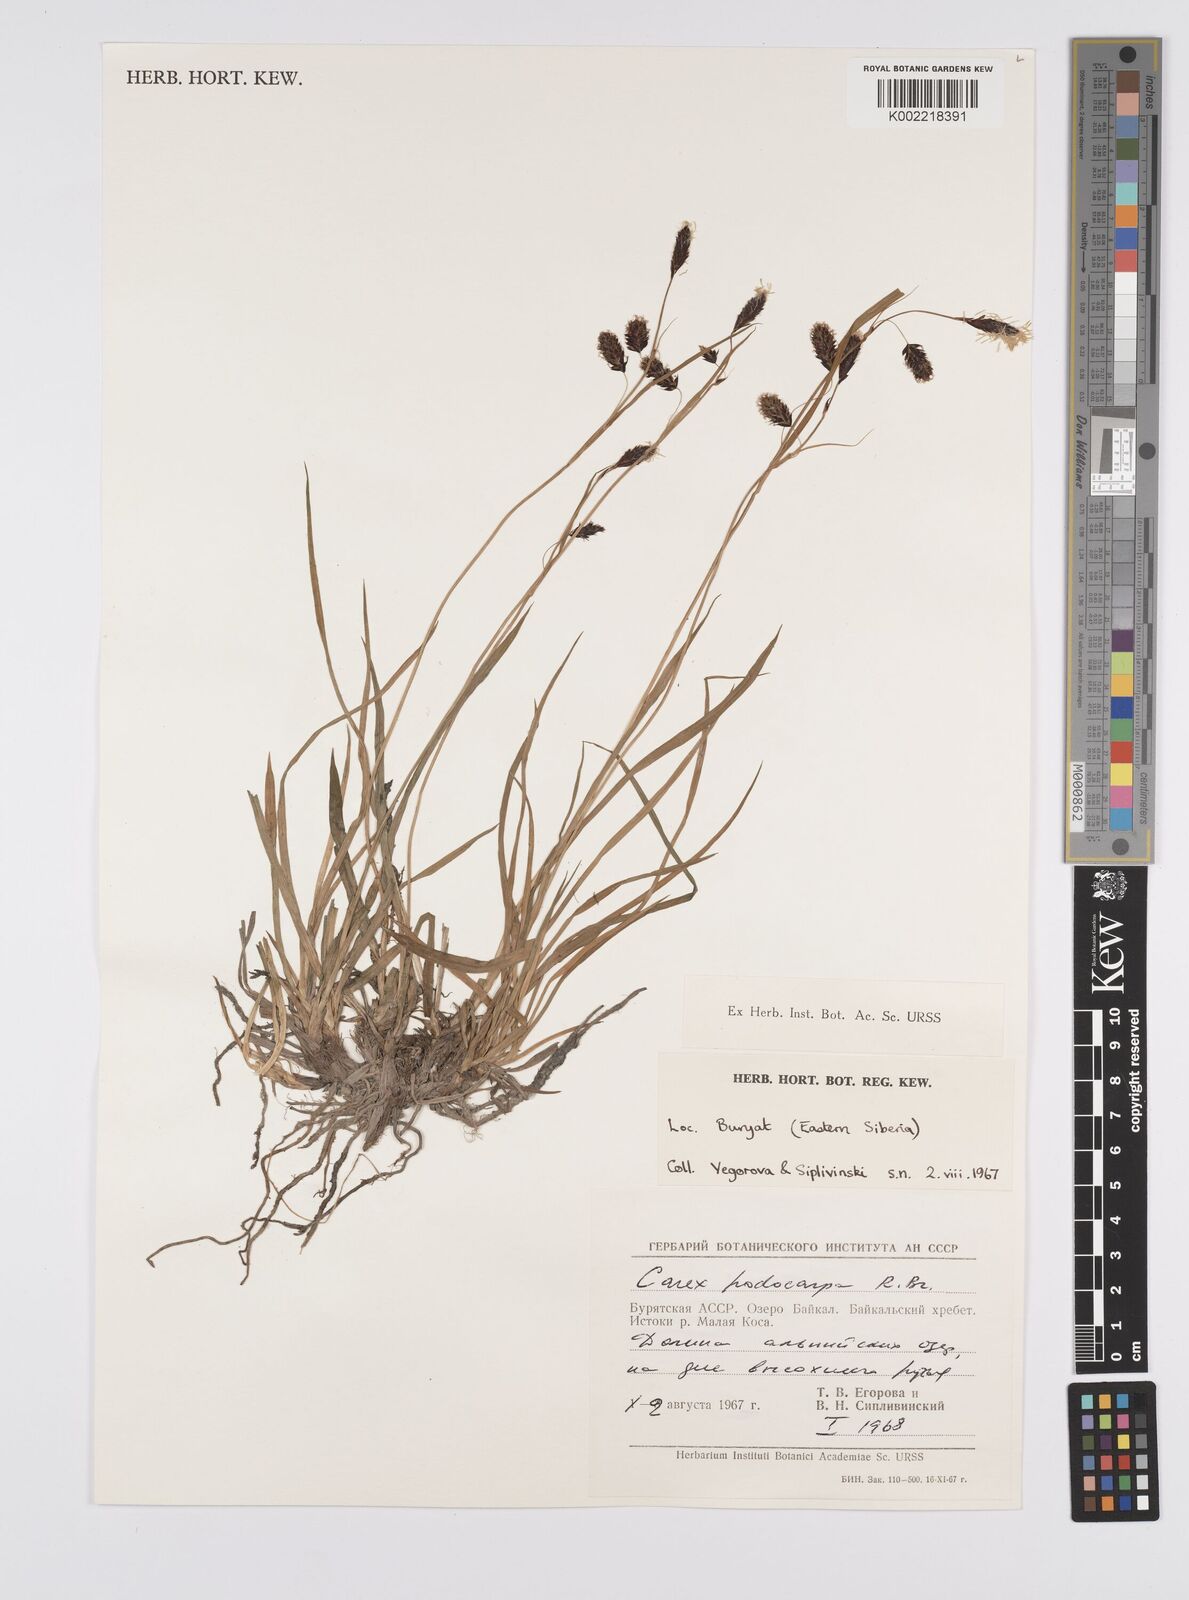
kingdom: Plantae
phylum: Tracheophyta
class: Liliopsida
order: Poales
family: Cyperaceae
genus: Carex
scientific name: Carex podocarpa
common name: Alpine sedge
